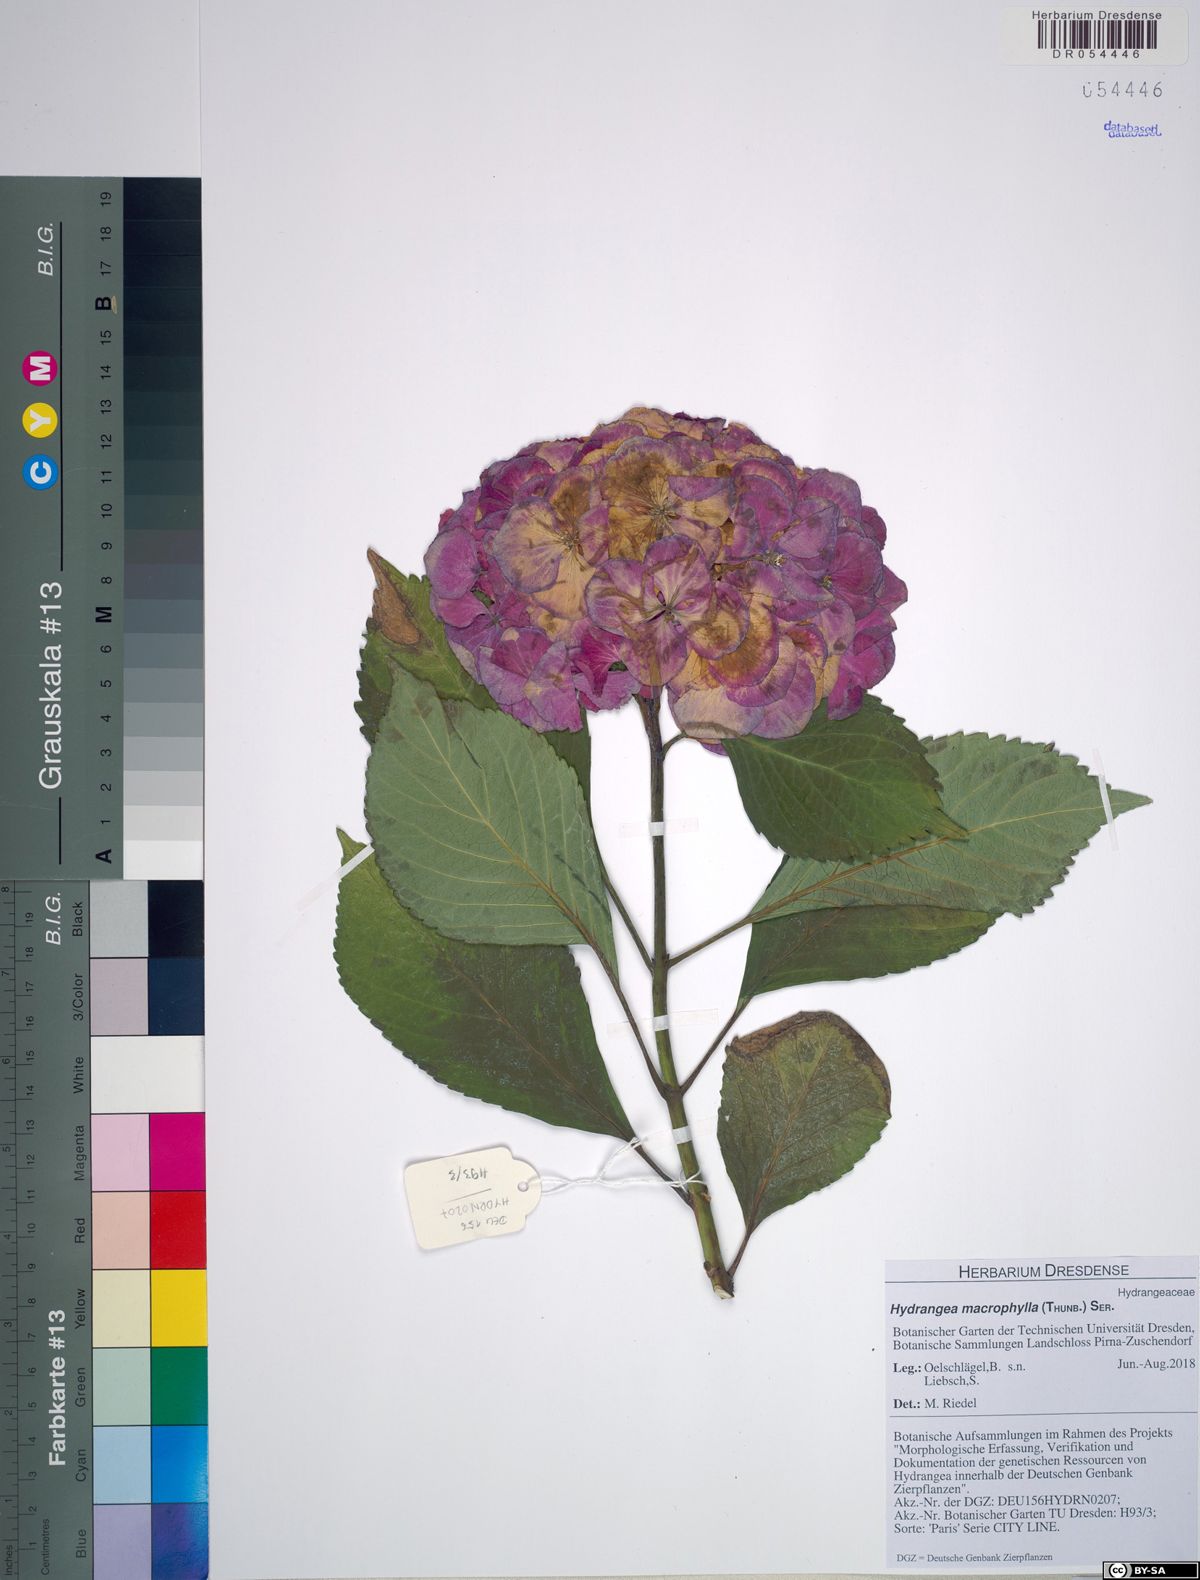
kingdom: Plantae
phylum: Tracheophyta
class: Magnoliopsida
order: Cornales
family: Hydrangeaceae
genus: Hydrangea
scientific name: Hydrangea macrophylla
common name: Hydrangea
